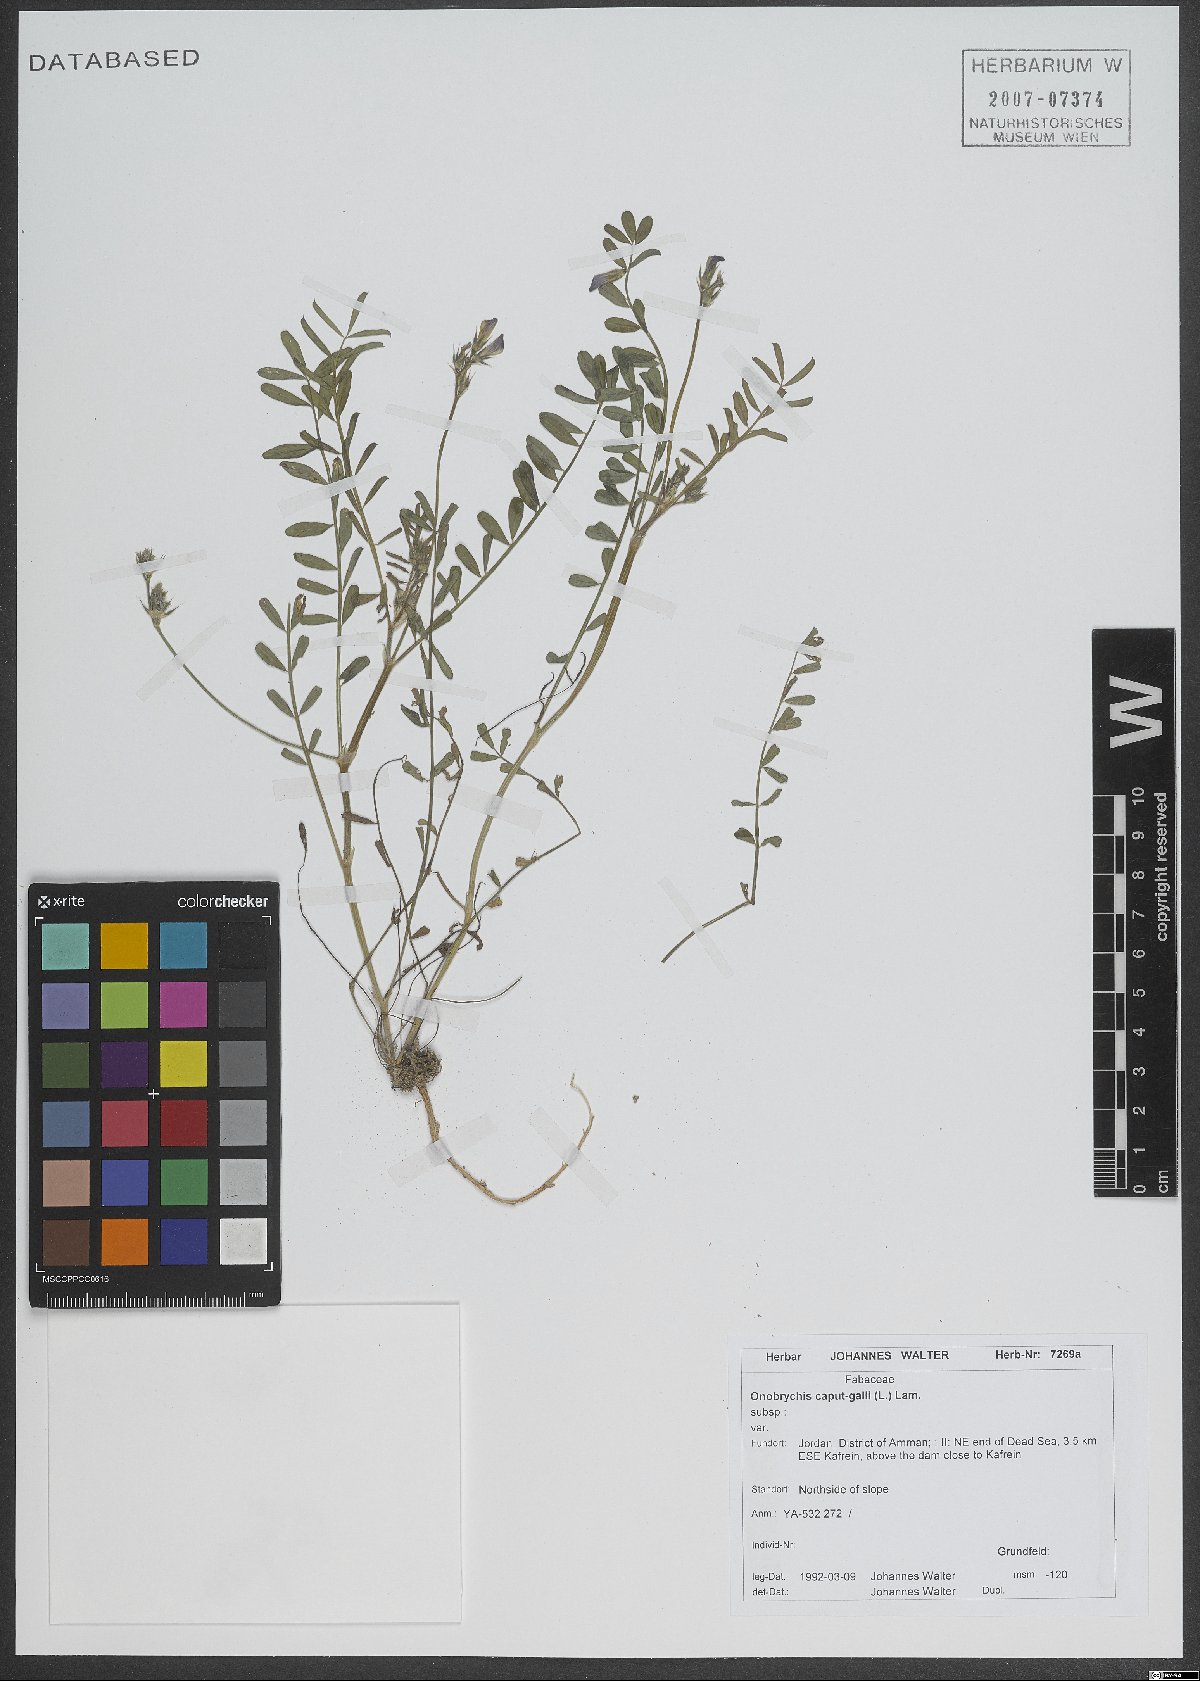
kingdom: Plantae
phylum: Tracheophyta
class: Magnoliopsida
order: Fabales
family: Fabaceae
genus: Onobrychis
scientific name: Onobrychis caput-galli
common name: Cockscomb sainfoin
